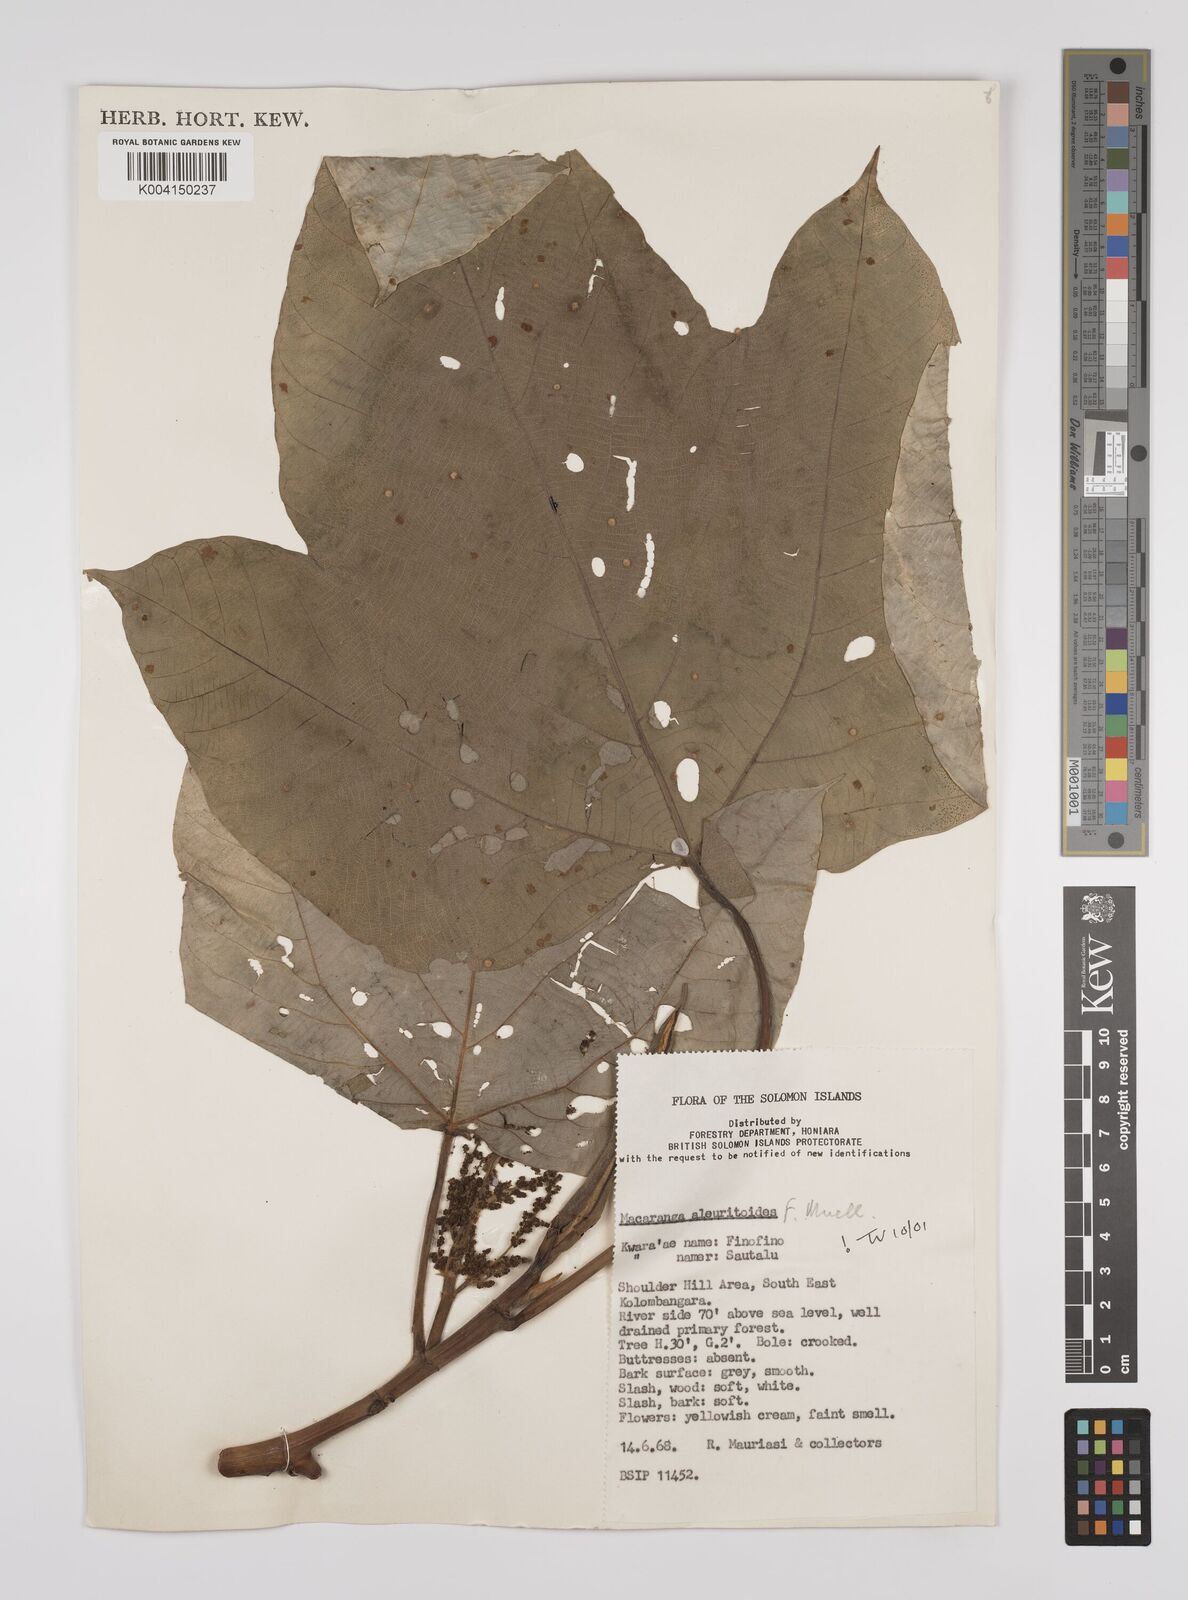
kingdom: Plantae
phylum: Tracheophyta
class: Magnoliopsida
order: Malpighiales
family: Euphorbiaceae
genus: Macaranga
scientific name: Macaranga aleuritoides
